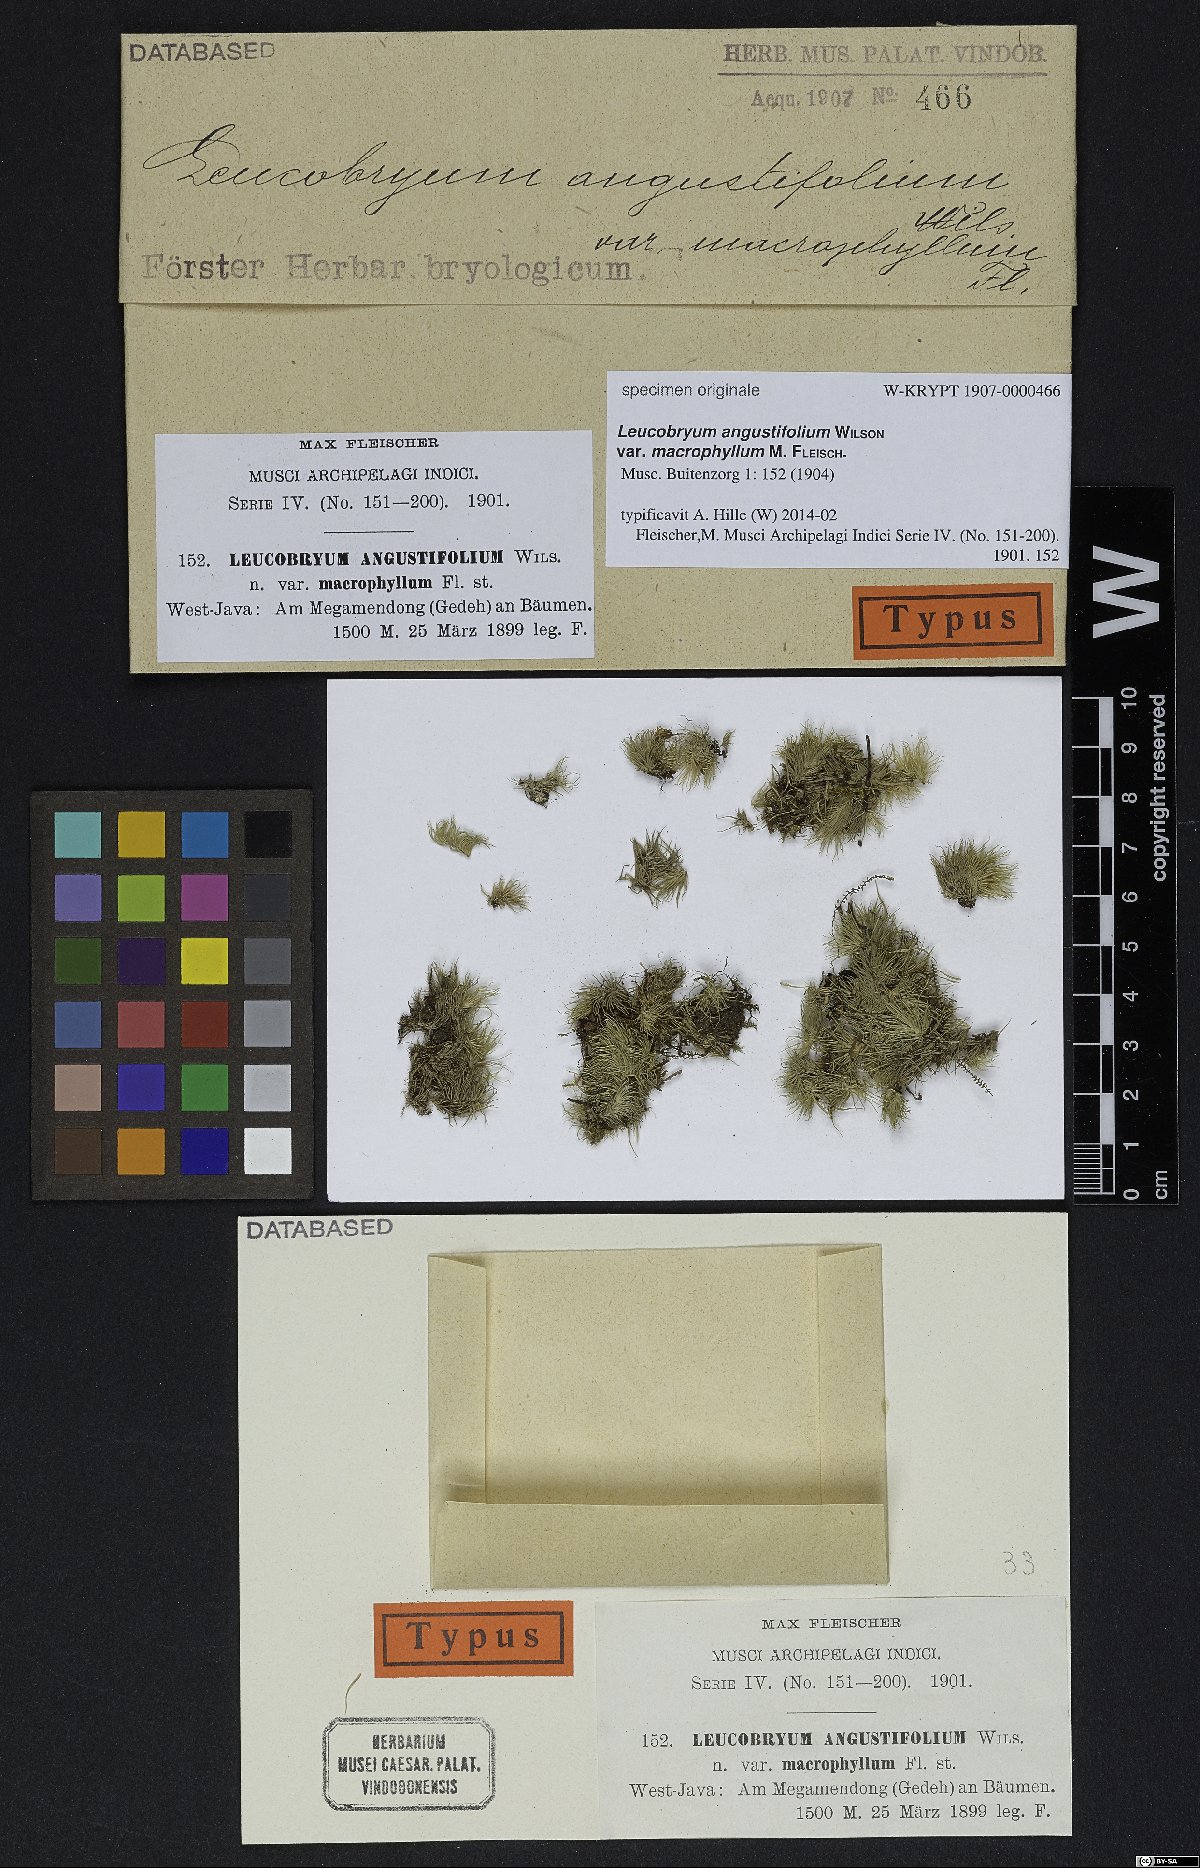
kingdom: Plantae
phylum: Bryophyta
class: Bryopsida
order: Dicranales
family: Leucobryaceae
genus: Leucobryum
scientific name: Leucobryum bowringii
